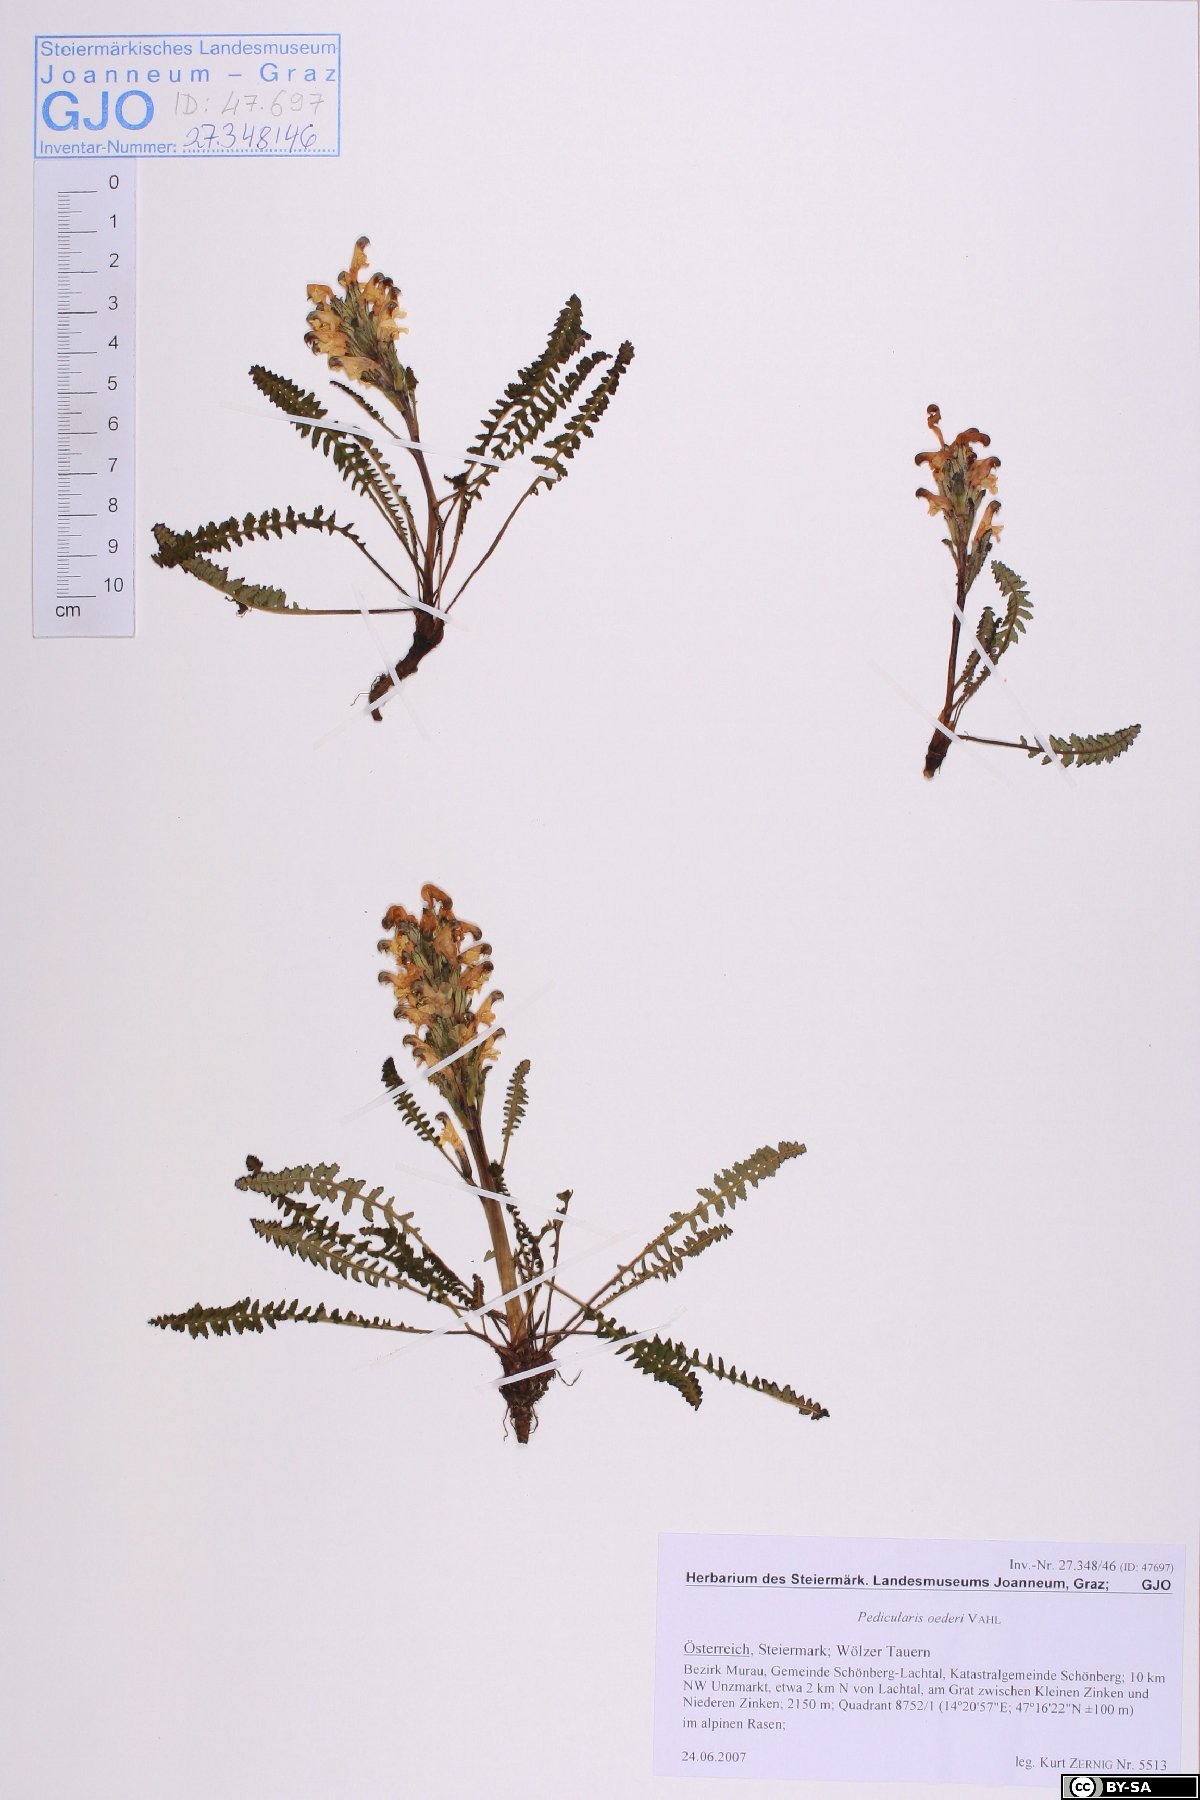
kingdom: Plantae
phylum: Tracheophyta
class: Magnoliopsida
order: Lamiales
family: Orobanchaceae
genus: Pedicularis
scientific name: Pedicularis oederi
